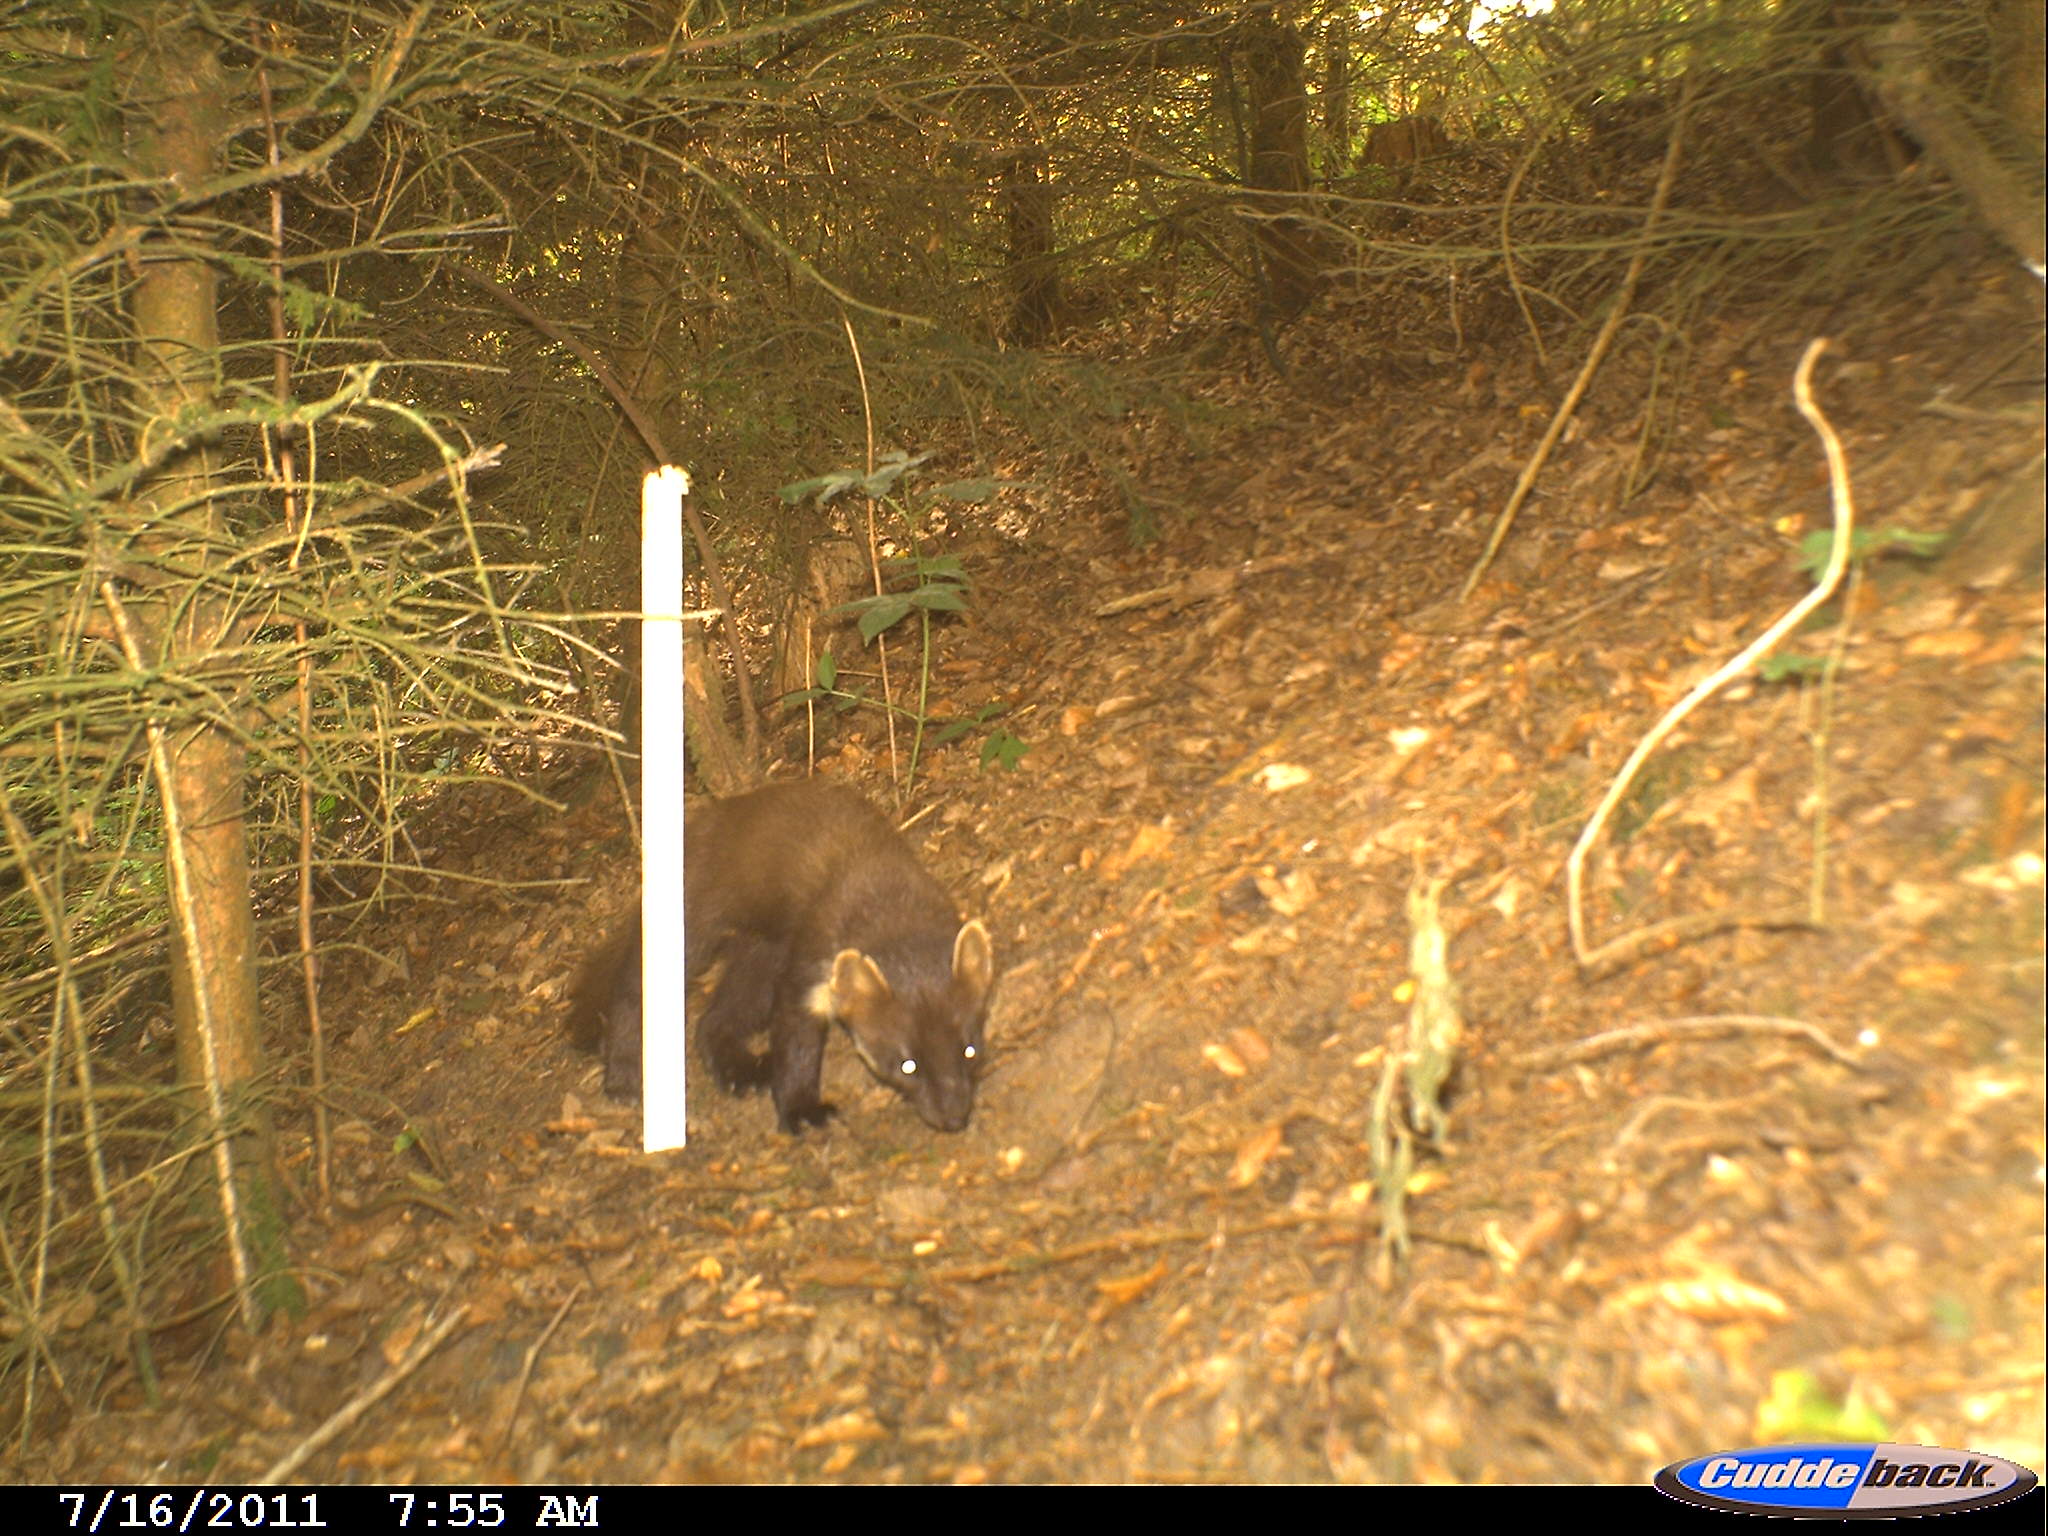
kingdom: Animalia
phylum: Chordata
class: Mammalia
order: Carnivora
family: Mustelidae
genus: Martes
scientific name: Martes martes
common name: European pine marten
